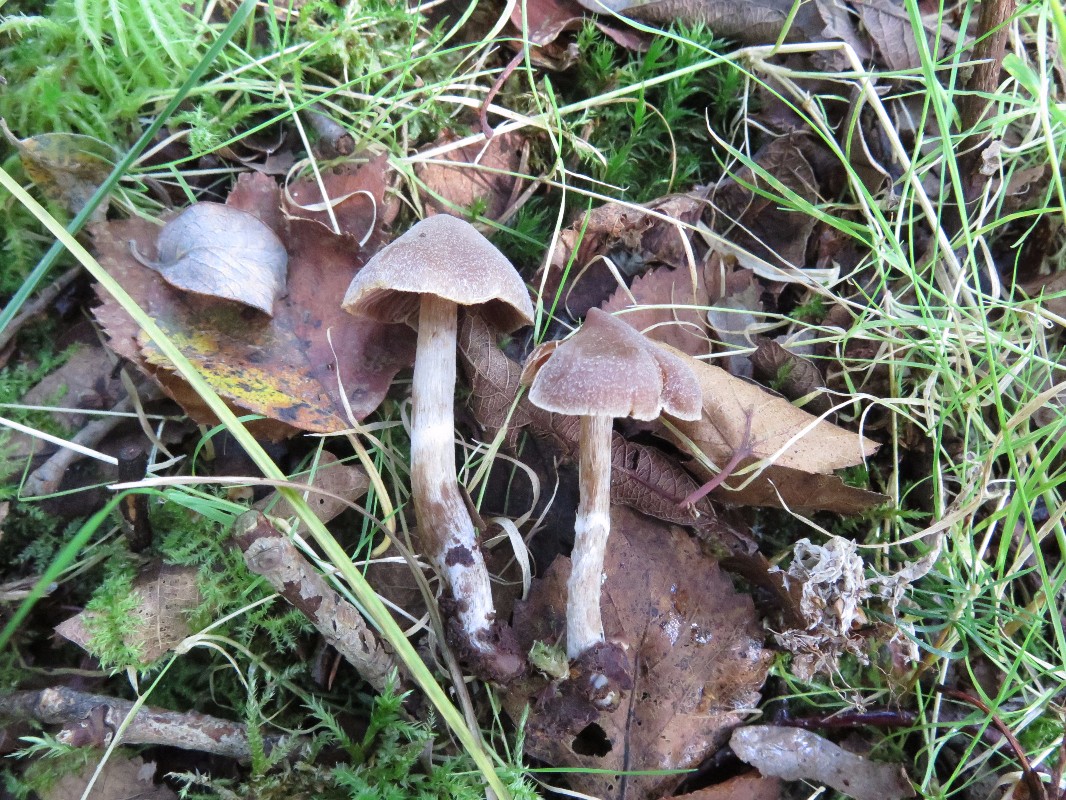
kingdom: Fungi
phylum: Basidiomycota
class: Agaricomycetes
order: Agaricales
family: Cortinariaceae
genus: Cortinarius
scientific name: Cortinarius
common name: pelargonie-slørhat
